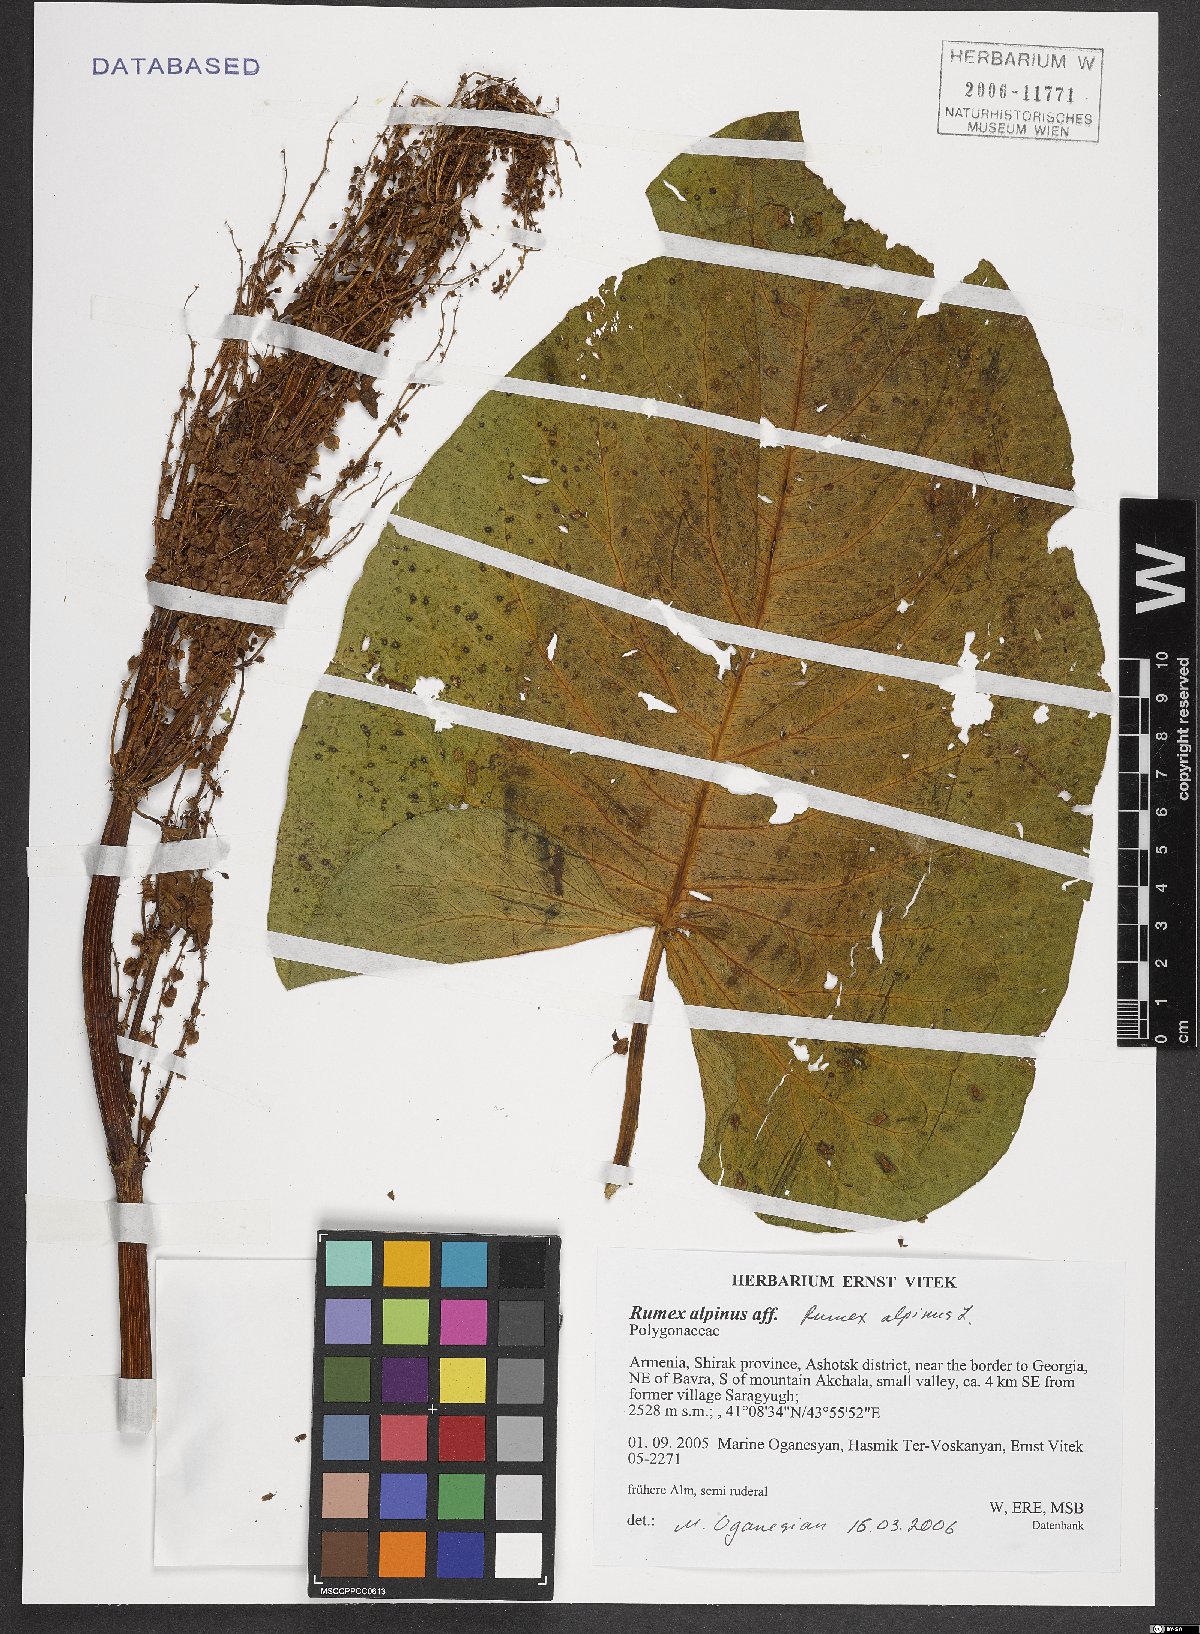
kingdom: Plantae
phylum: Tracheophyta
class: Magnoliopsida
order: Caryophyllales
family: Polygonaceae
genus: Rumex
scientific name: Rumex alpinus
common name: Alpine dock
